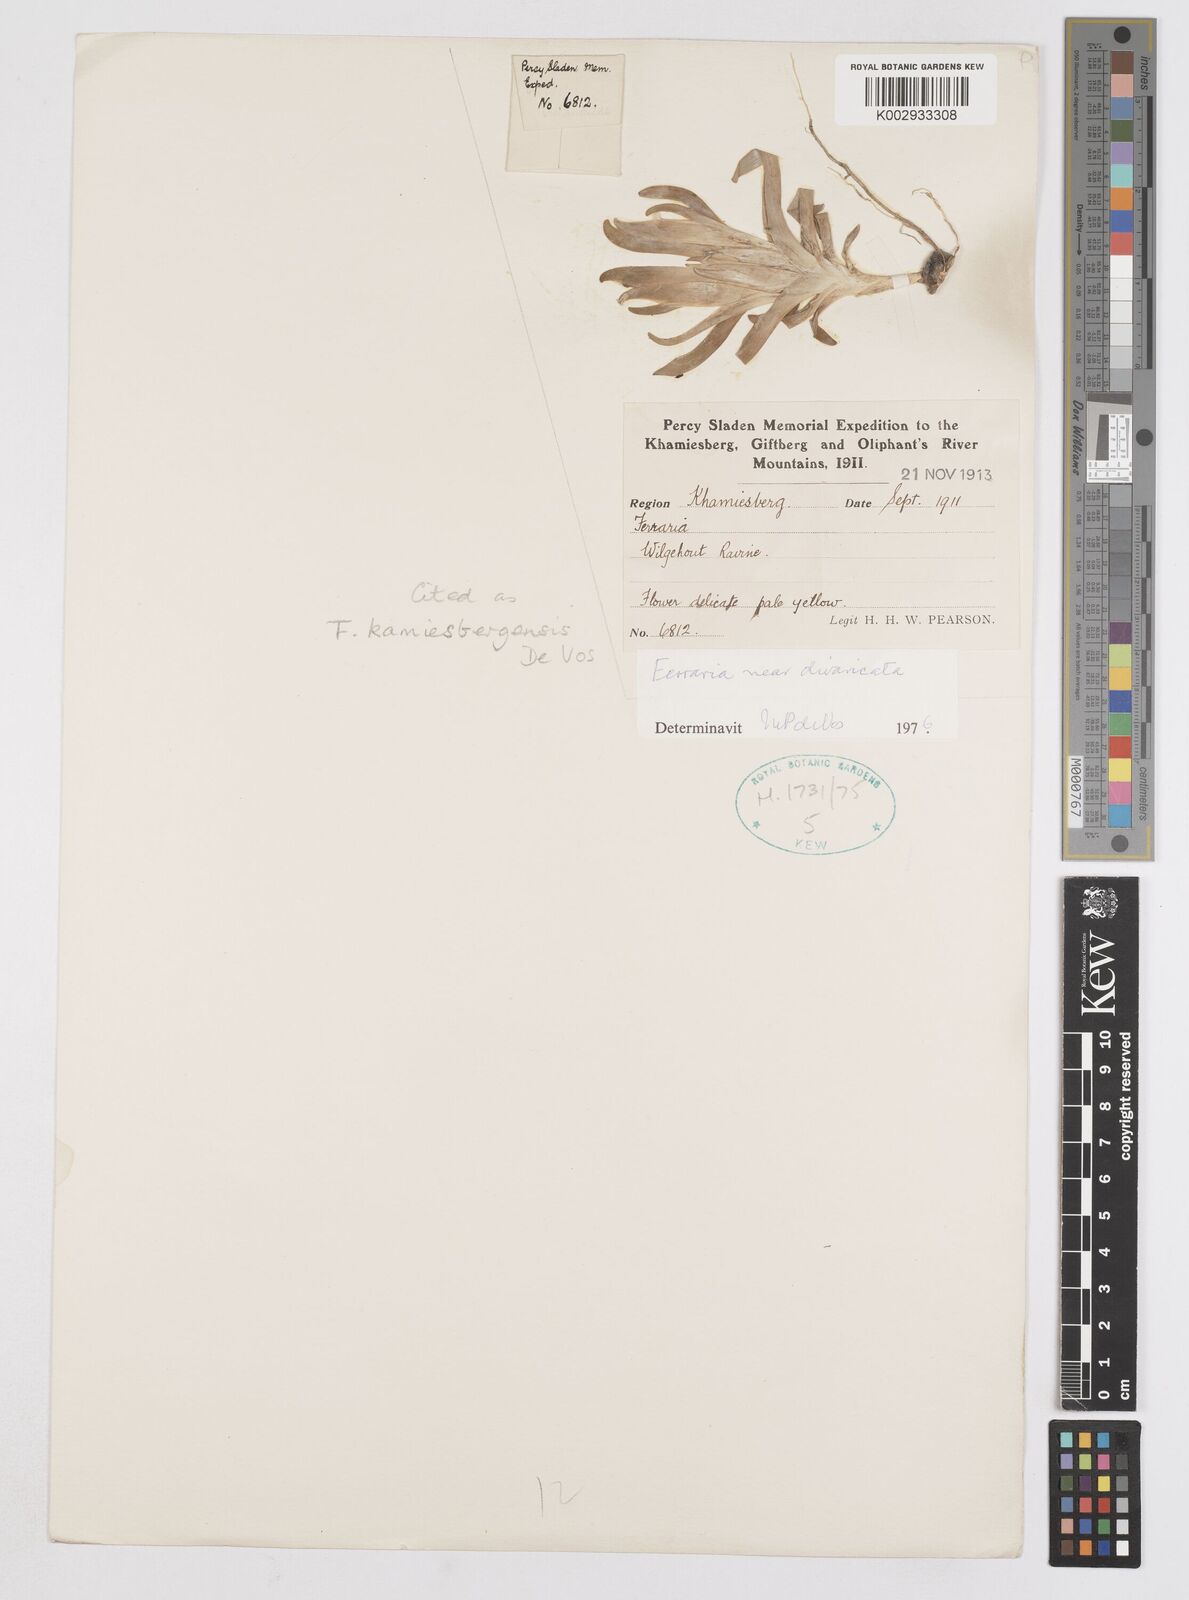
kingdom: Plantae
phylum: Tracheophyta
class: Liliopsida
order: Asparagales
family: Iridaceae
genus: Ferraria
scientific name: Ferraria macrochlamys
